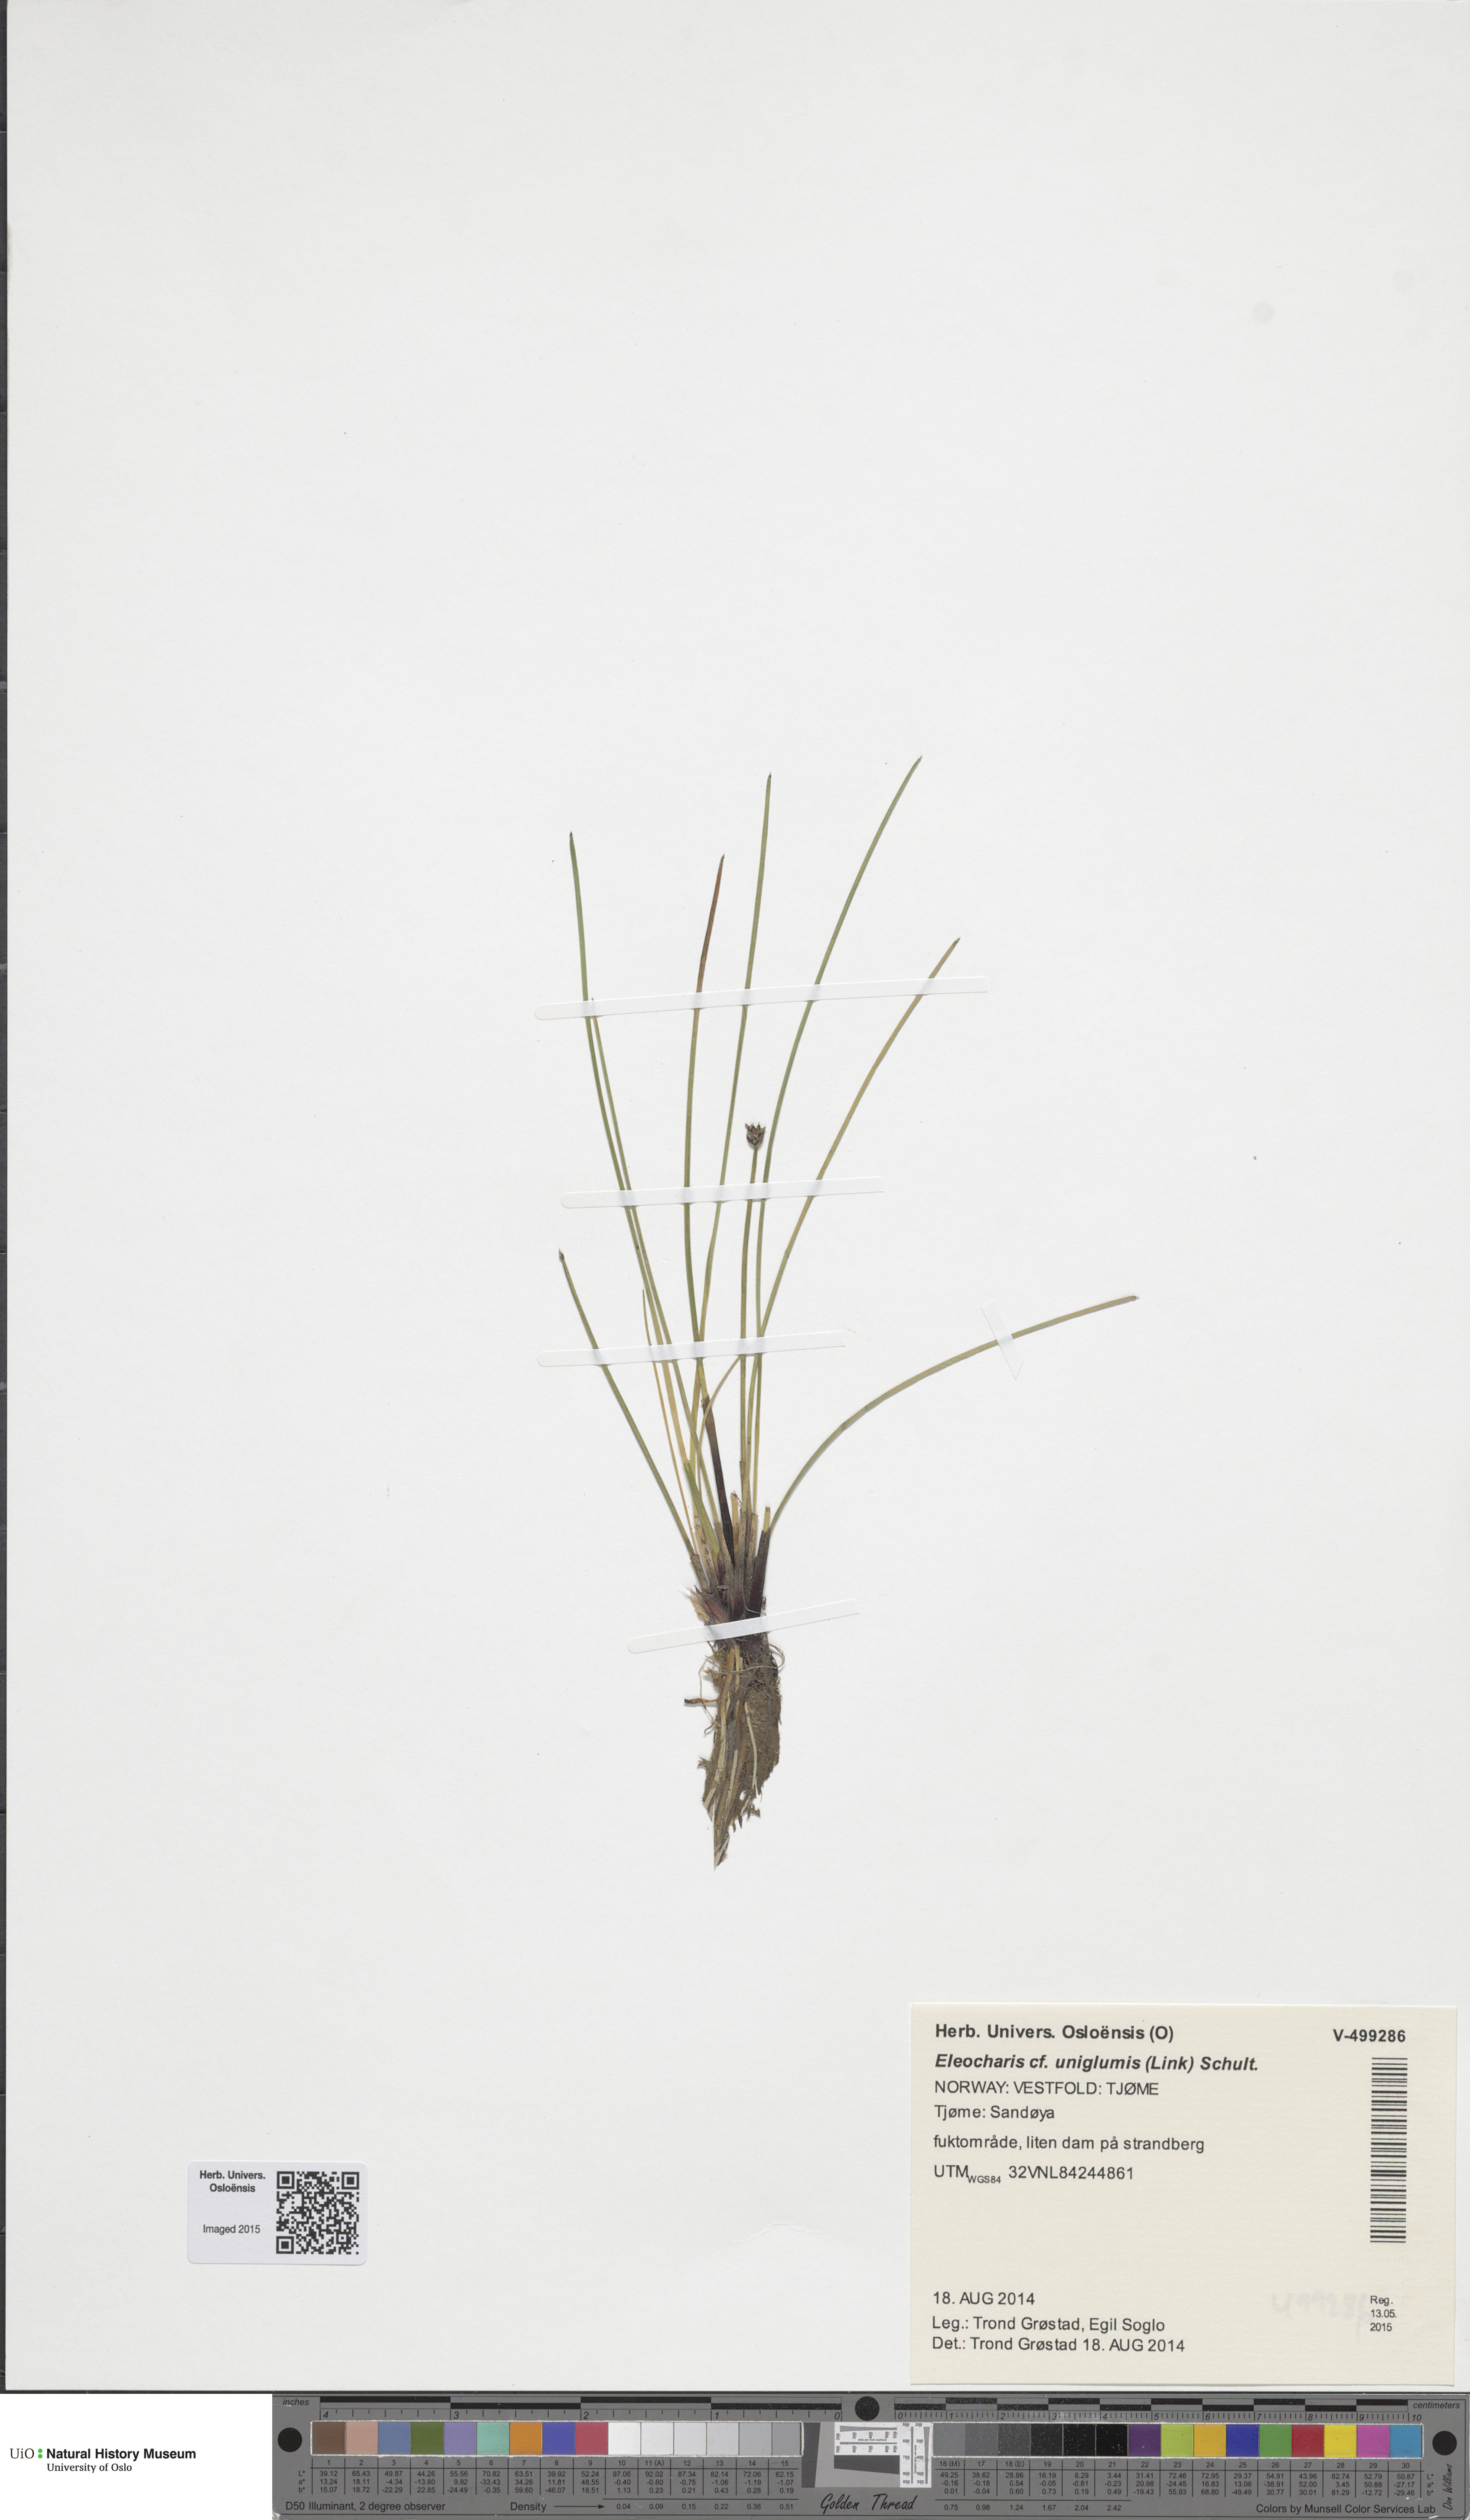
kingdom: Plantae
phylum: Tracheophyta
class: Liliopsida
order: Poales
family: Cyperaceae
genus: Eleocharis
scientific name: Eleocharis uniglumis
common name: Slender spike-rush
